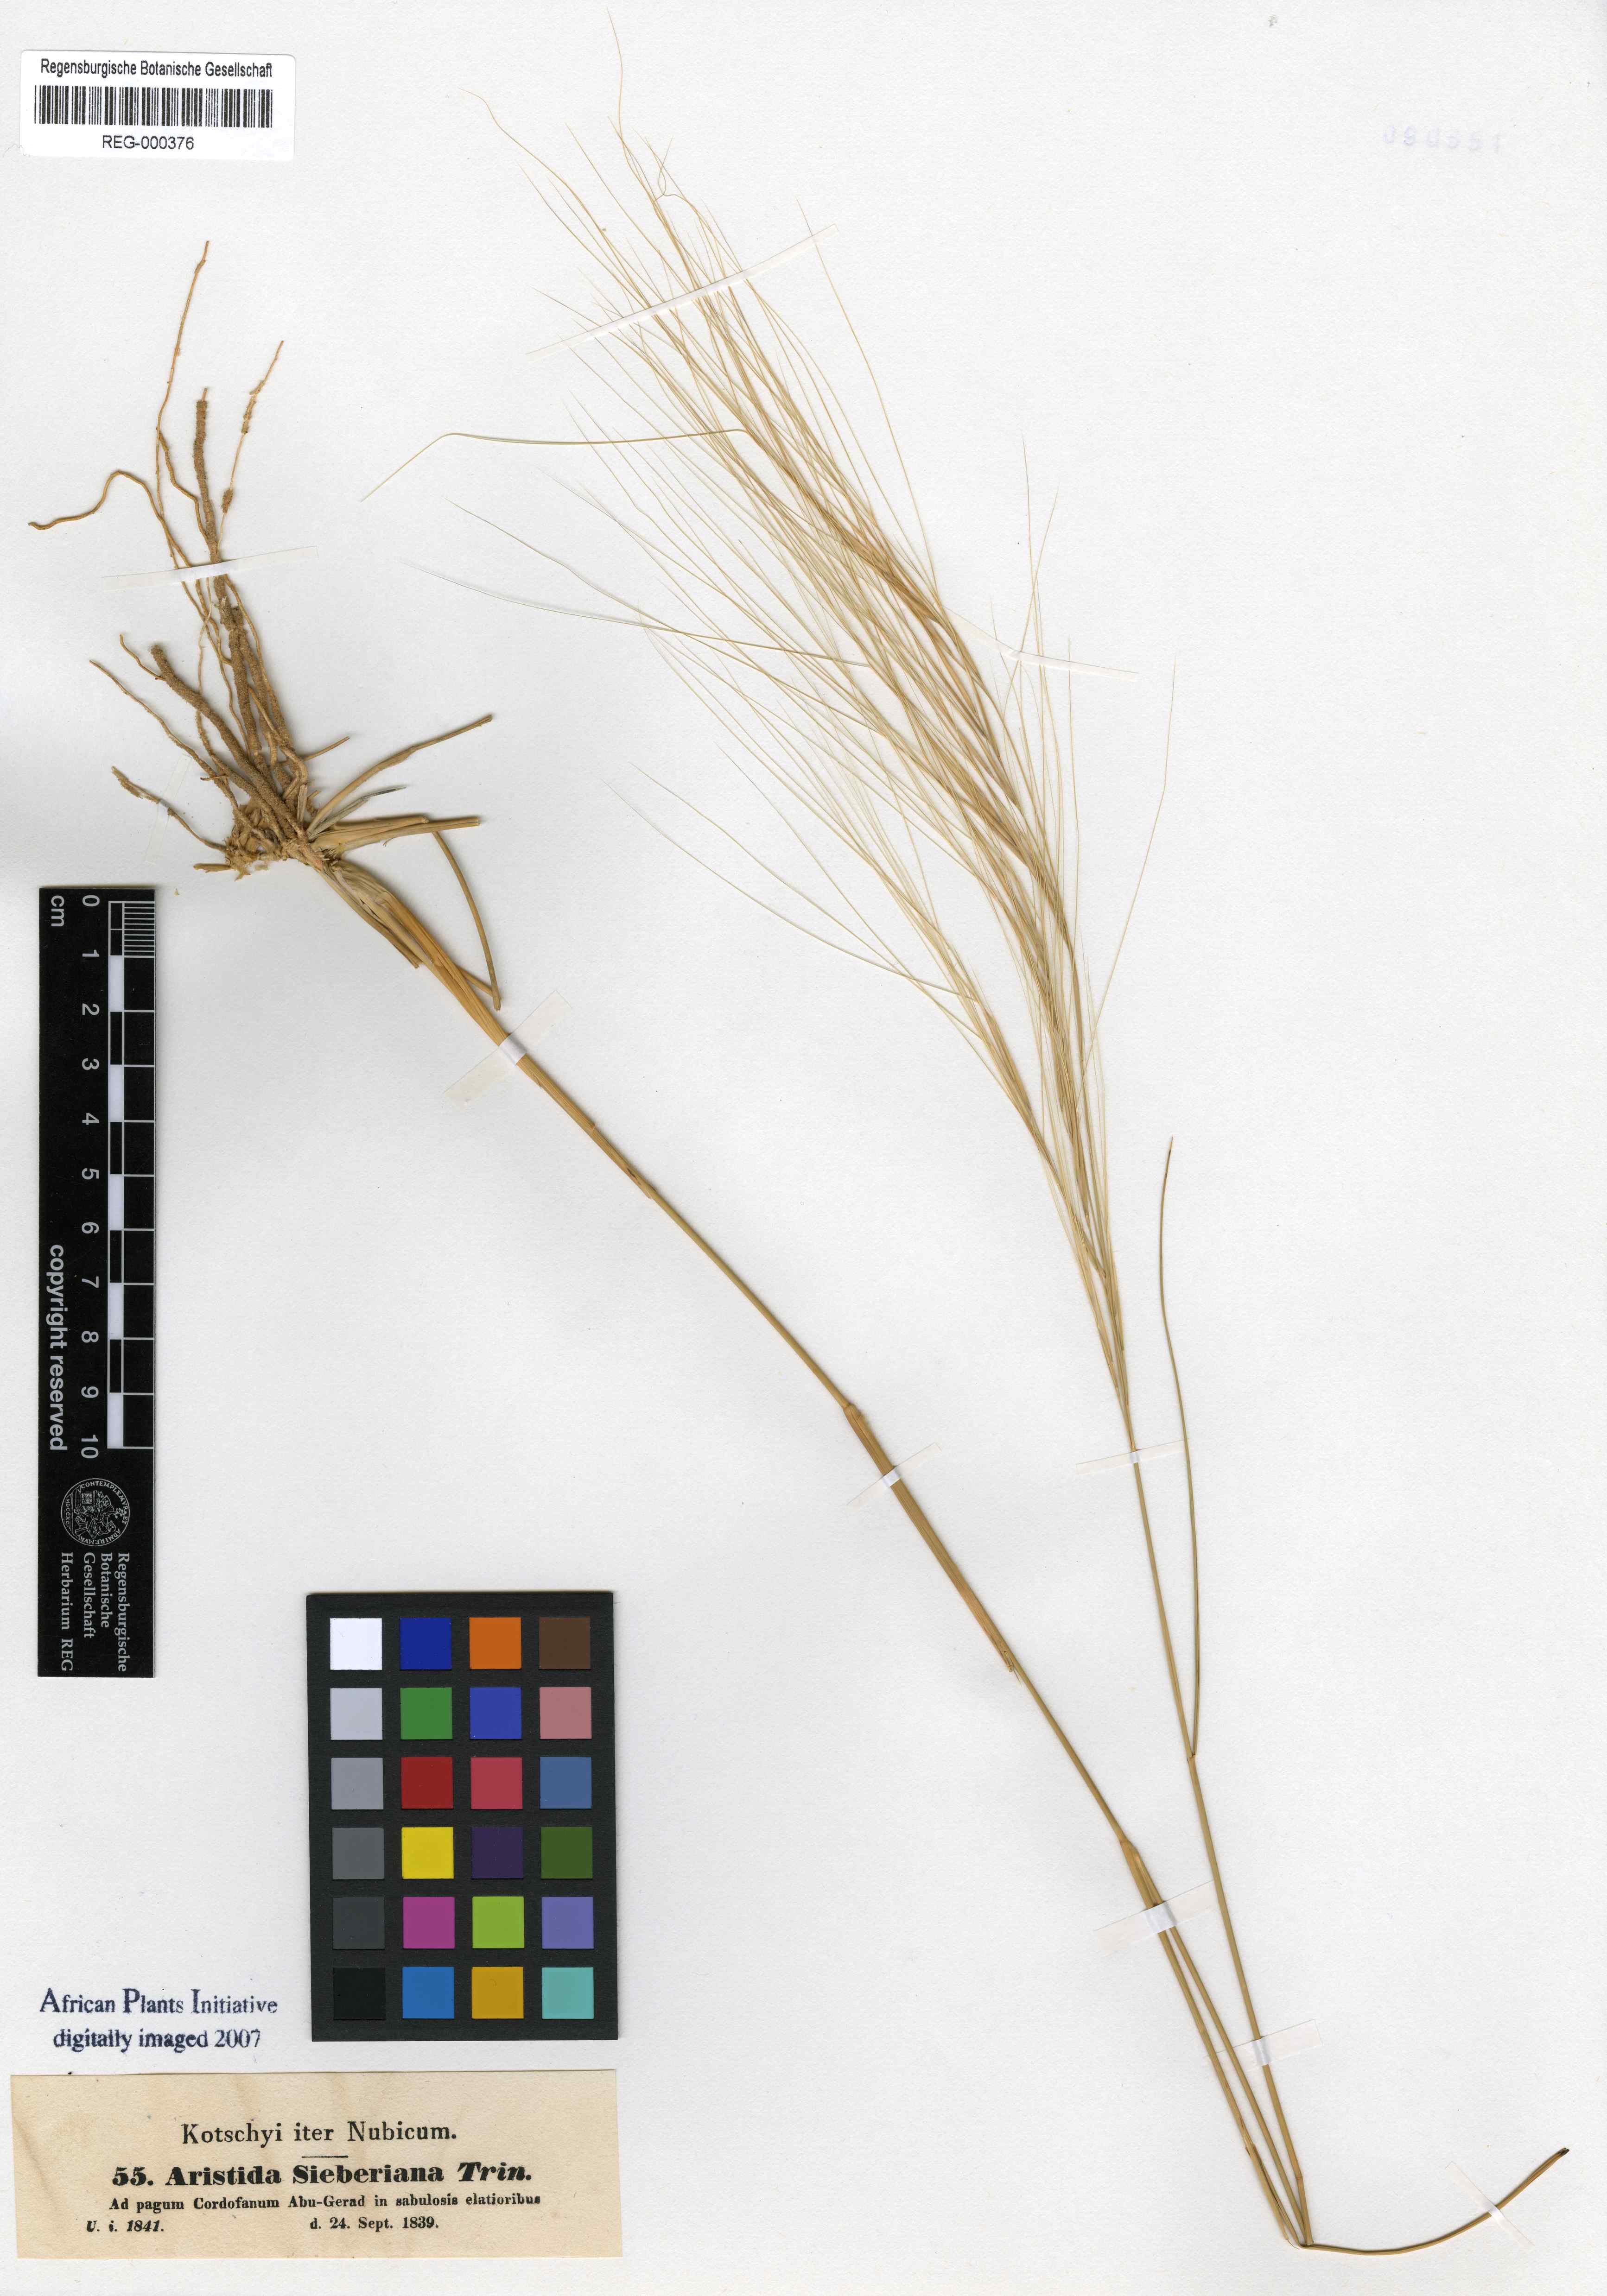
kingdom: Plantae
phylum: Tracheophyta
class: Liliopsida
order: Poales
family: Poaceae
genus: Aristida
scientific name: Aristida sieberiana
